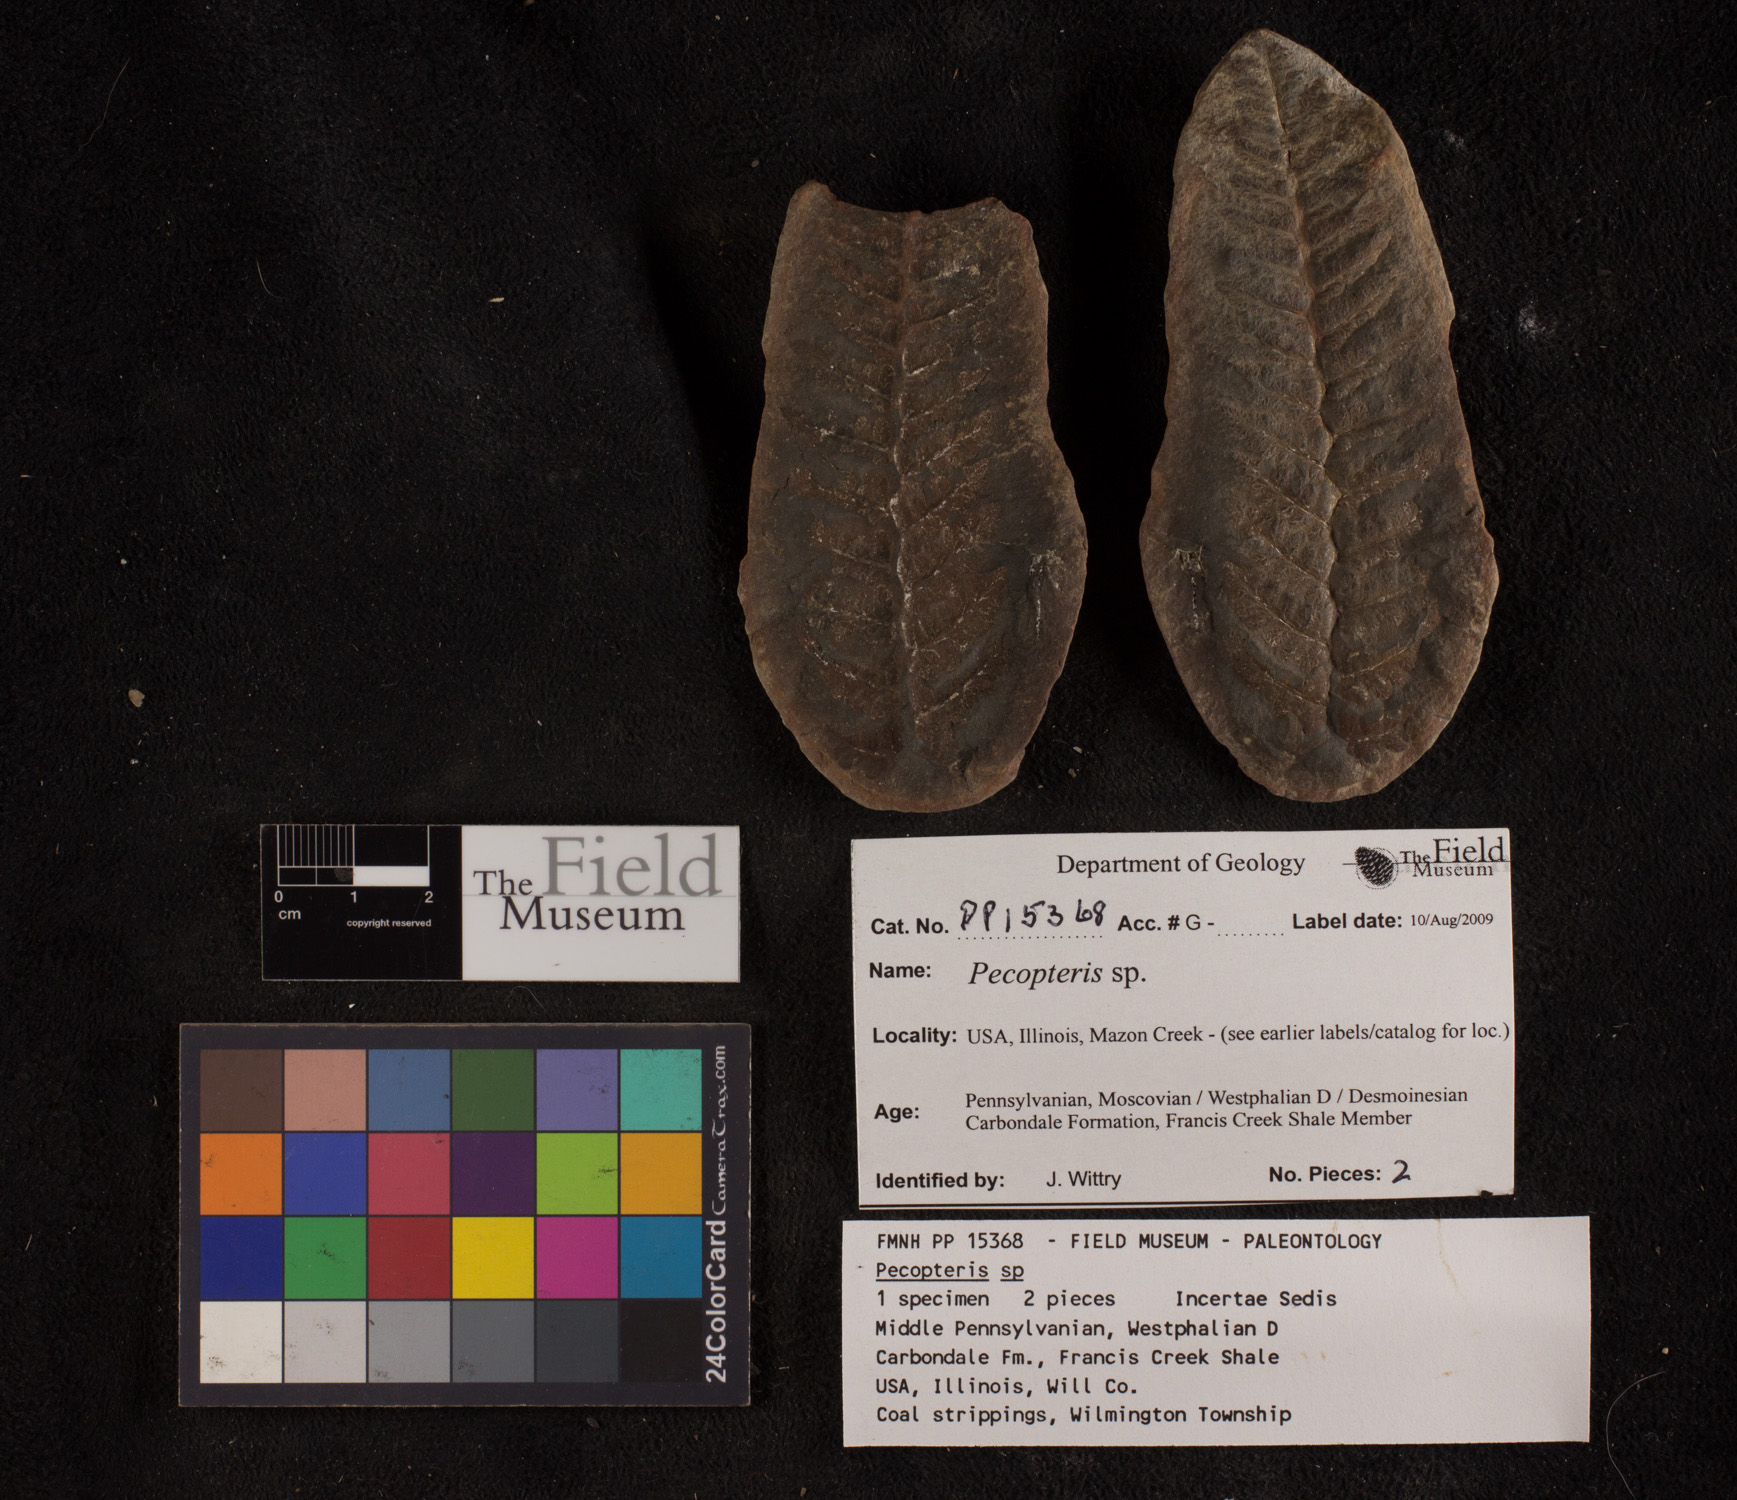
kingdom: Plantae
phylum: Tracheophyta
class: Polypodiopsida
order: Marattiales
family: Asterothecaceae
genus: Pecopteris
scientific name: Pecopteris
